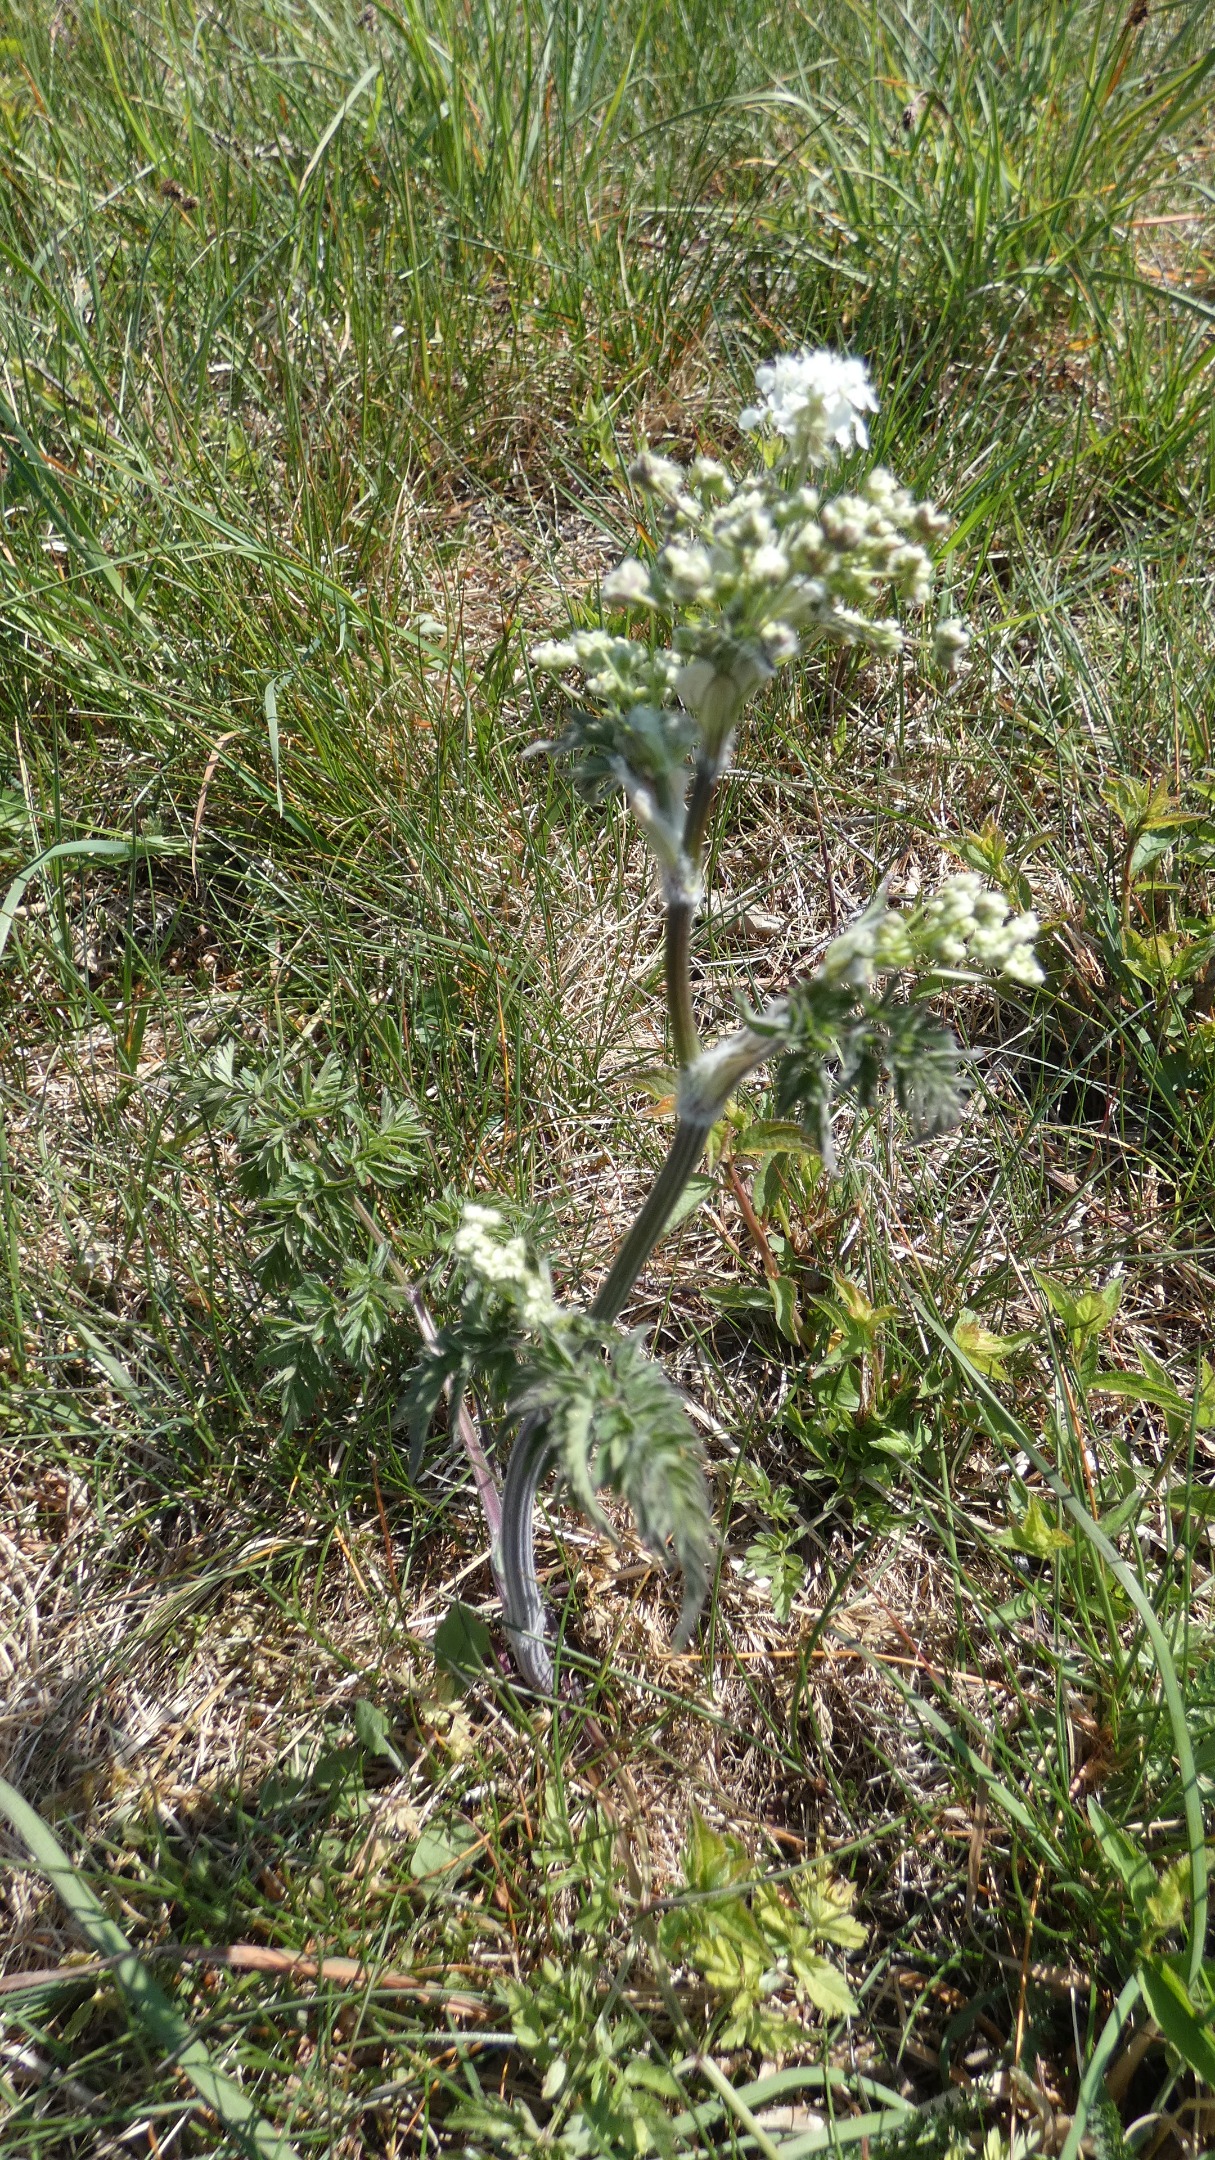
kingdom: Plantae
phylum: Tracheophyta
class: Magnoliopsida
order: Apiales
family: Apiaceae
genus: Anthriscus
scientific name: Anthriscus sylvestris
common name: Vild kørvel
